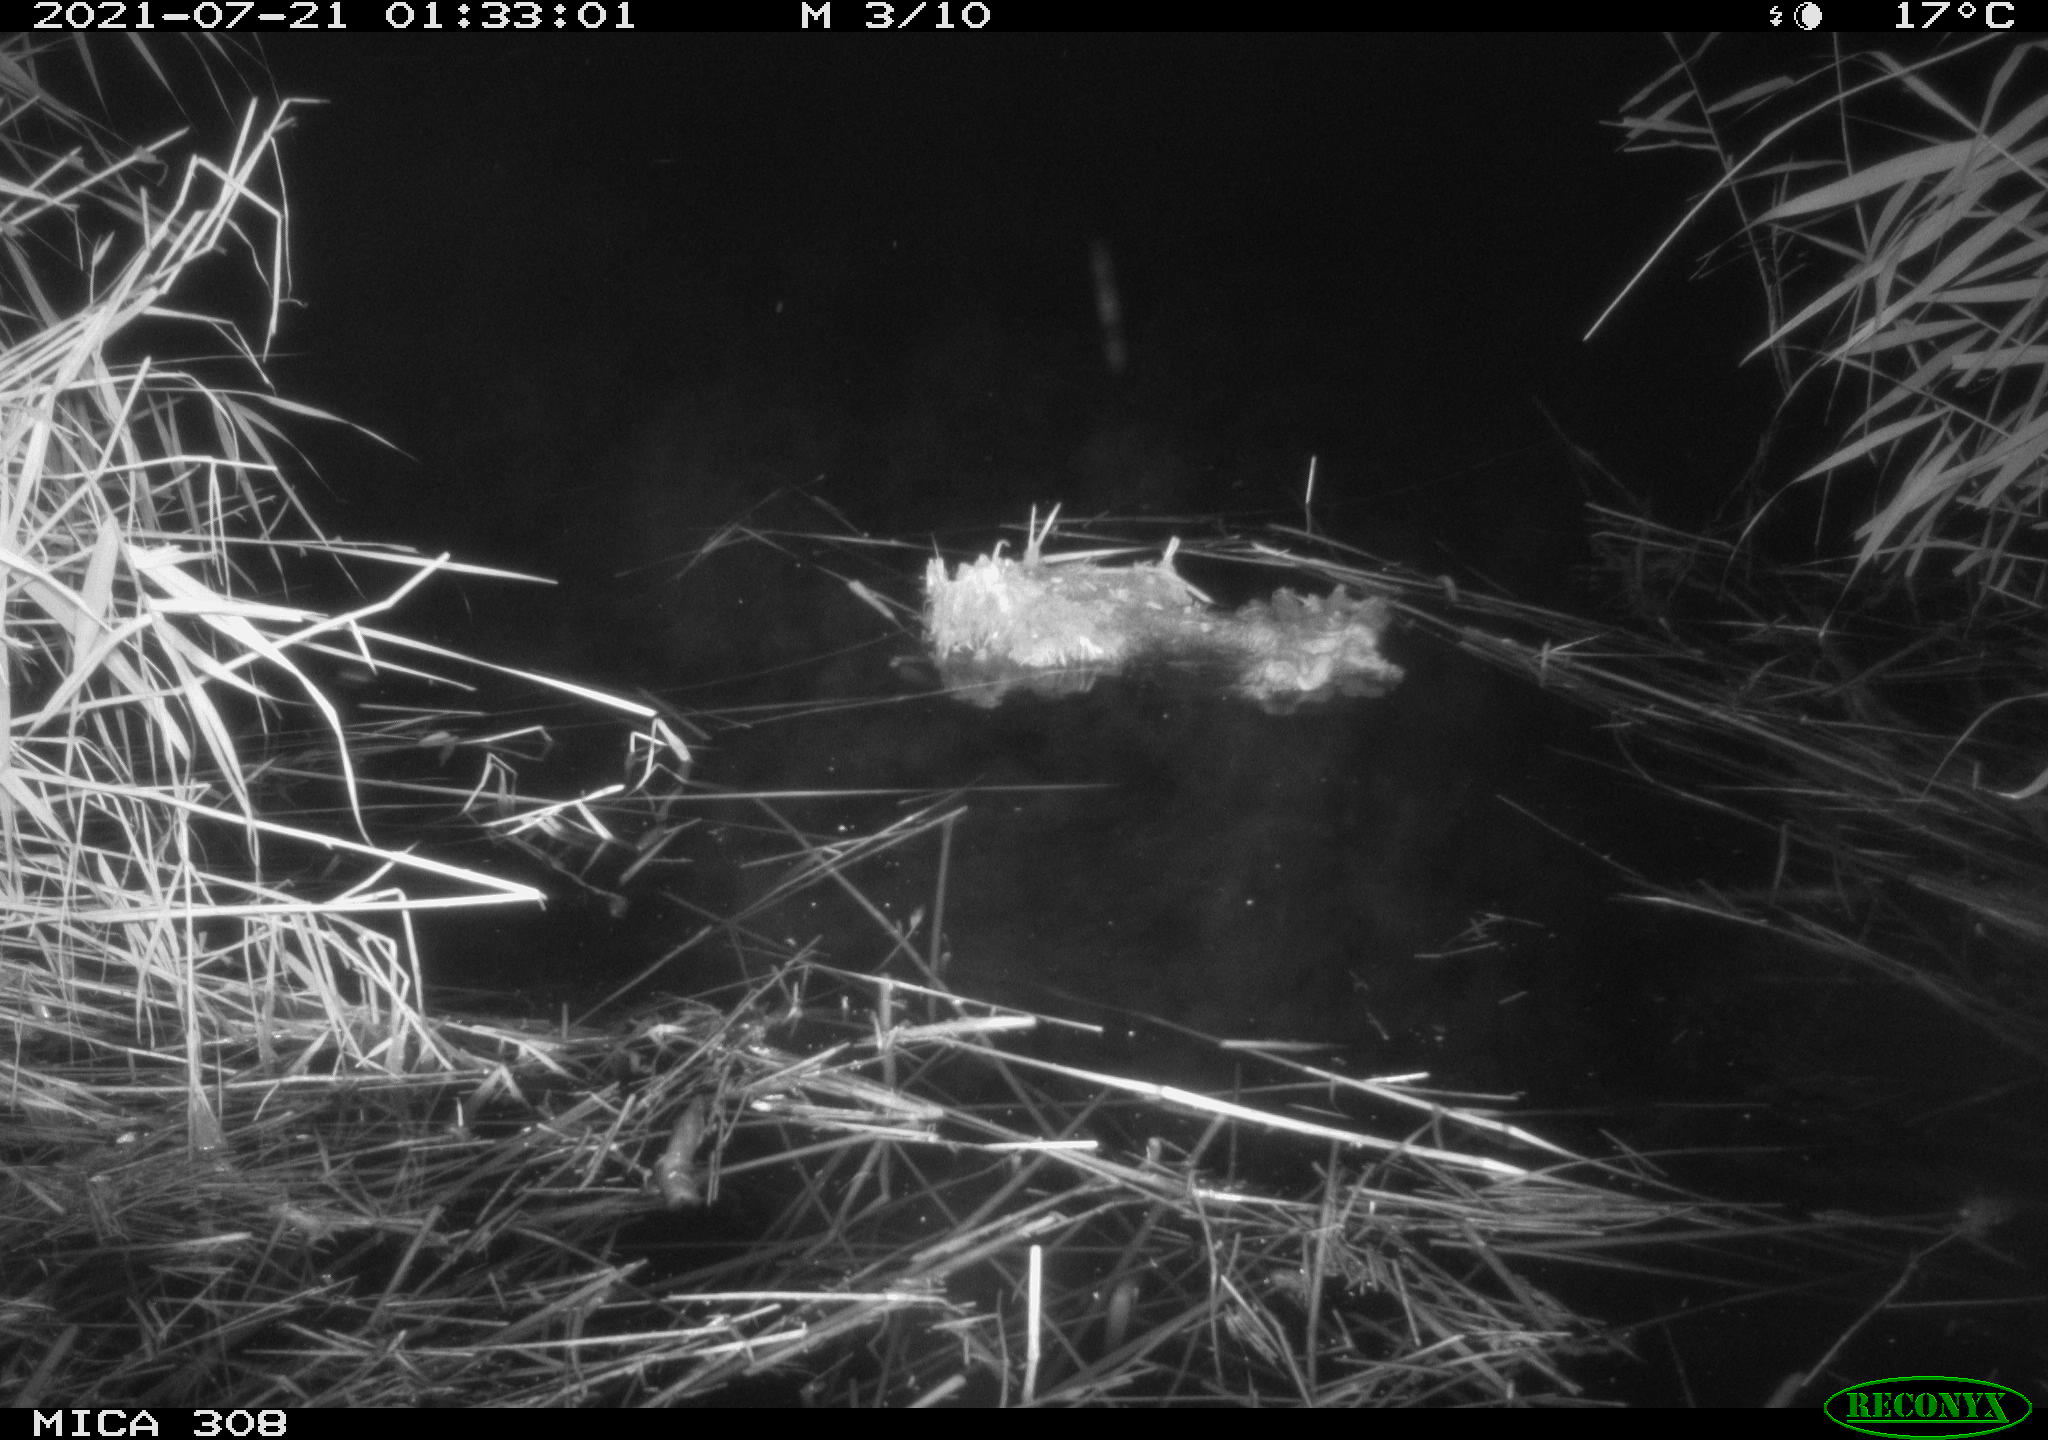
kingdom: Animalia
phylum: Chordata
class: Aves
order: Anseriformes
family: Anatidae
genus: Anas
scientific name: Anas platyrhynchos
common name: Mallard
